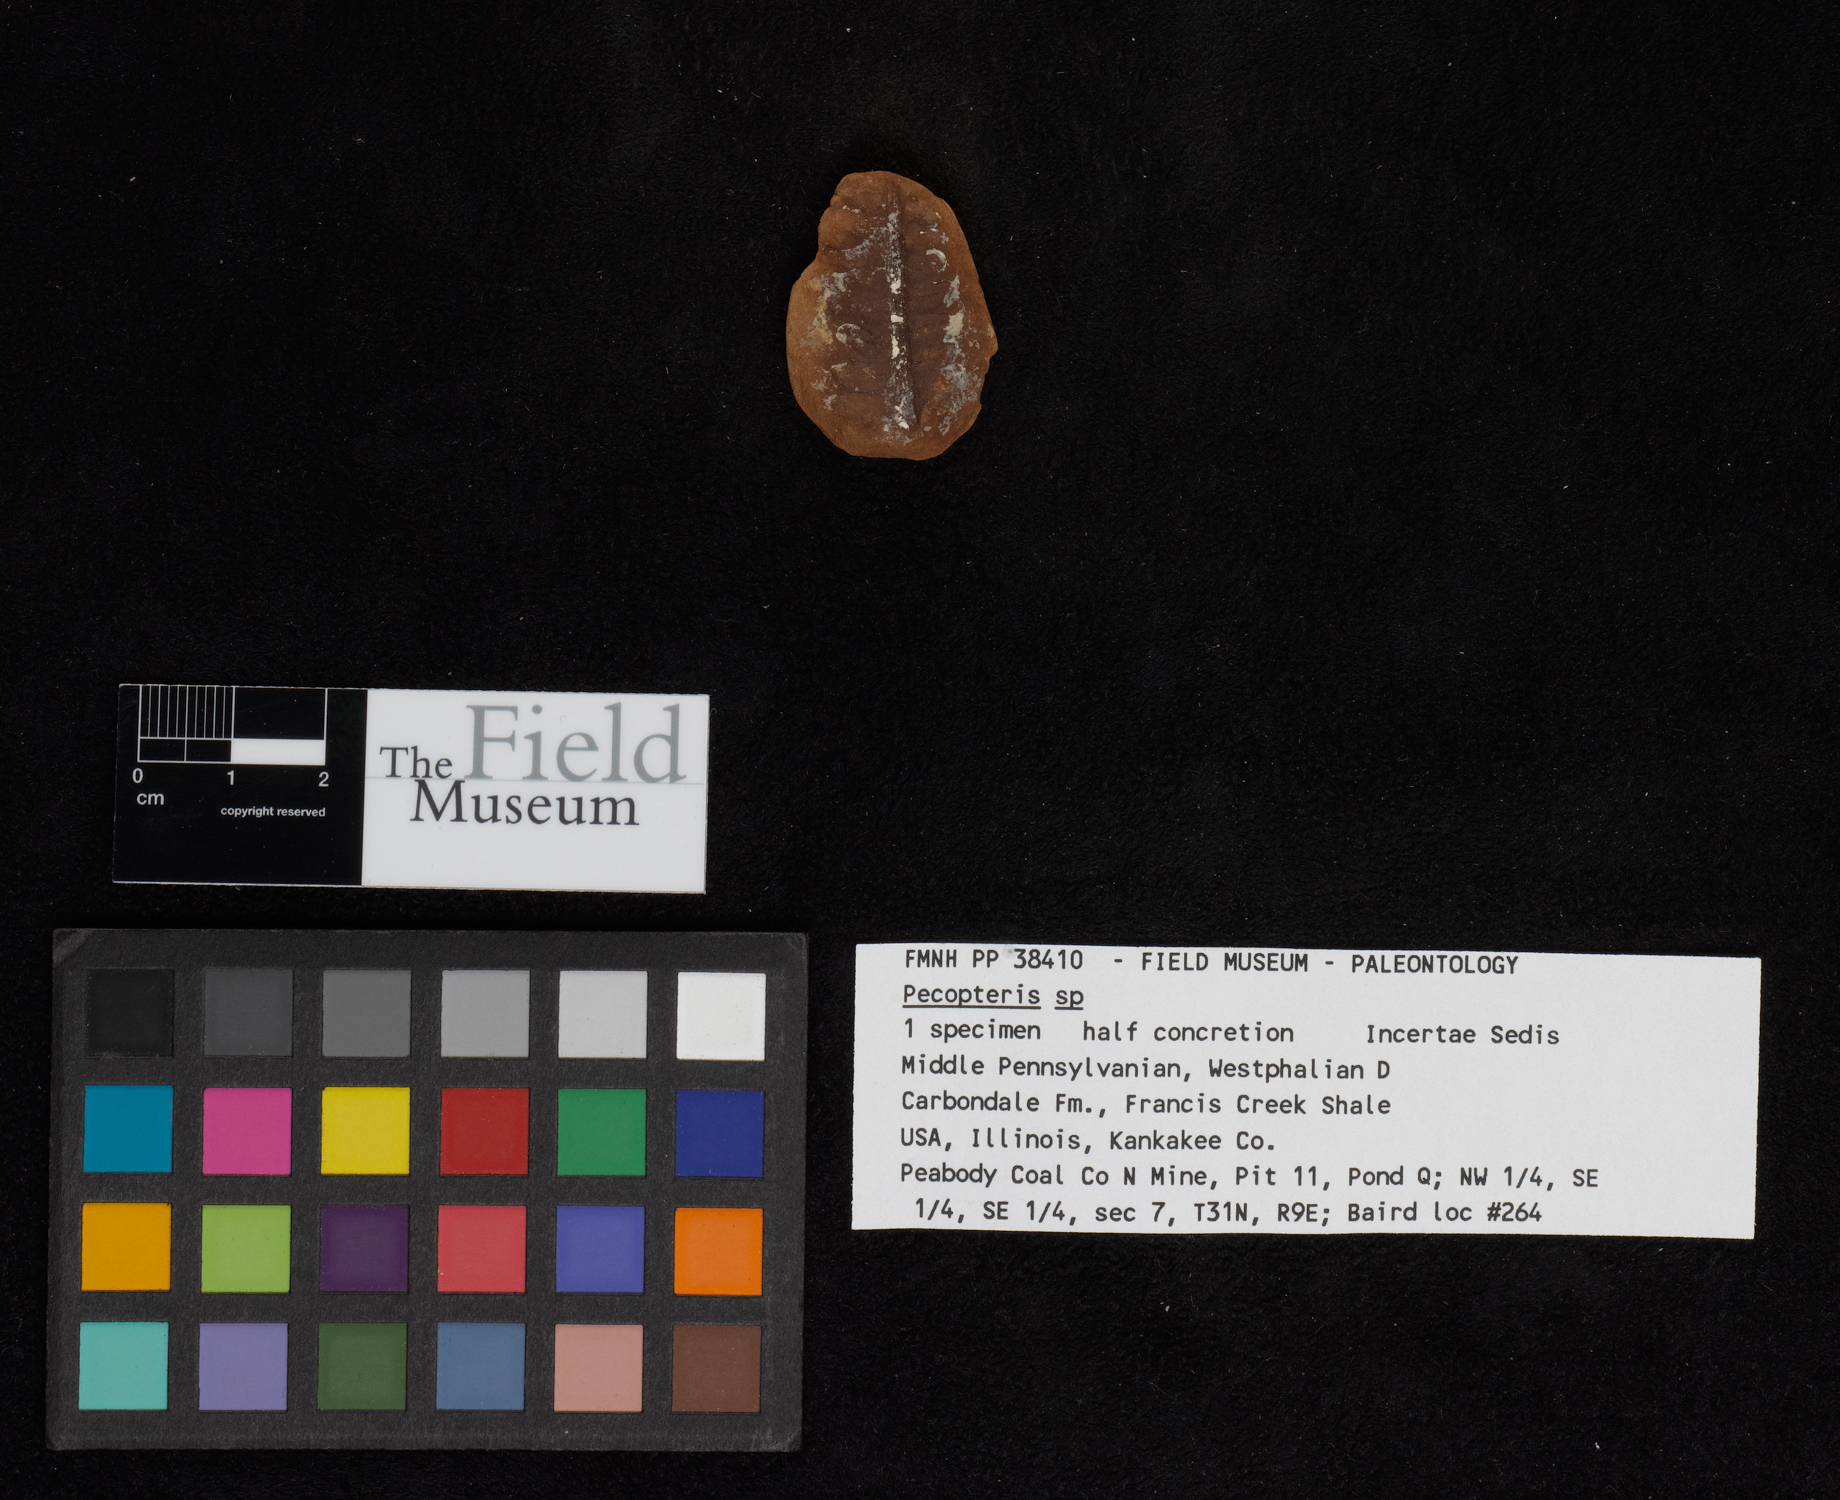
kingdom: Plantae
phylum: Tracheophyta
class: Polypodiopsida
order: Marattiales
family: Asterothecaceae
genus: Pecopteris
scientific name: Pecopteris
